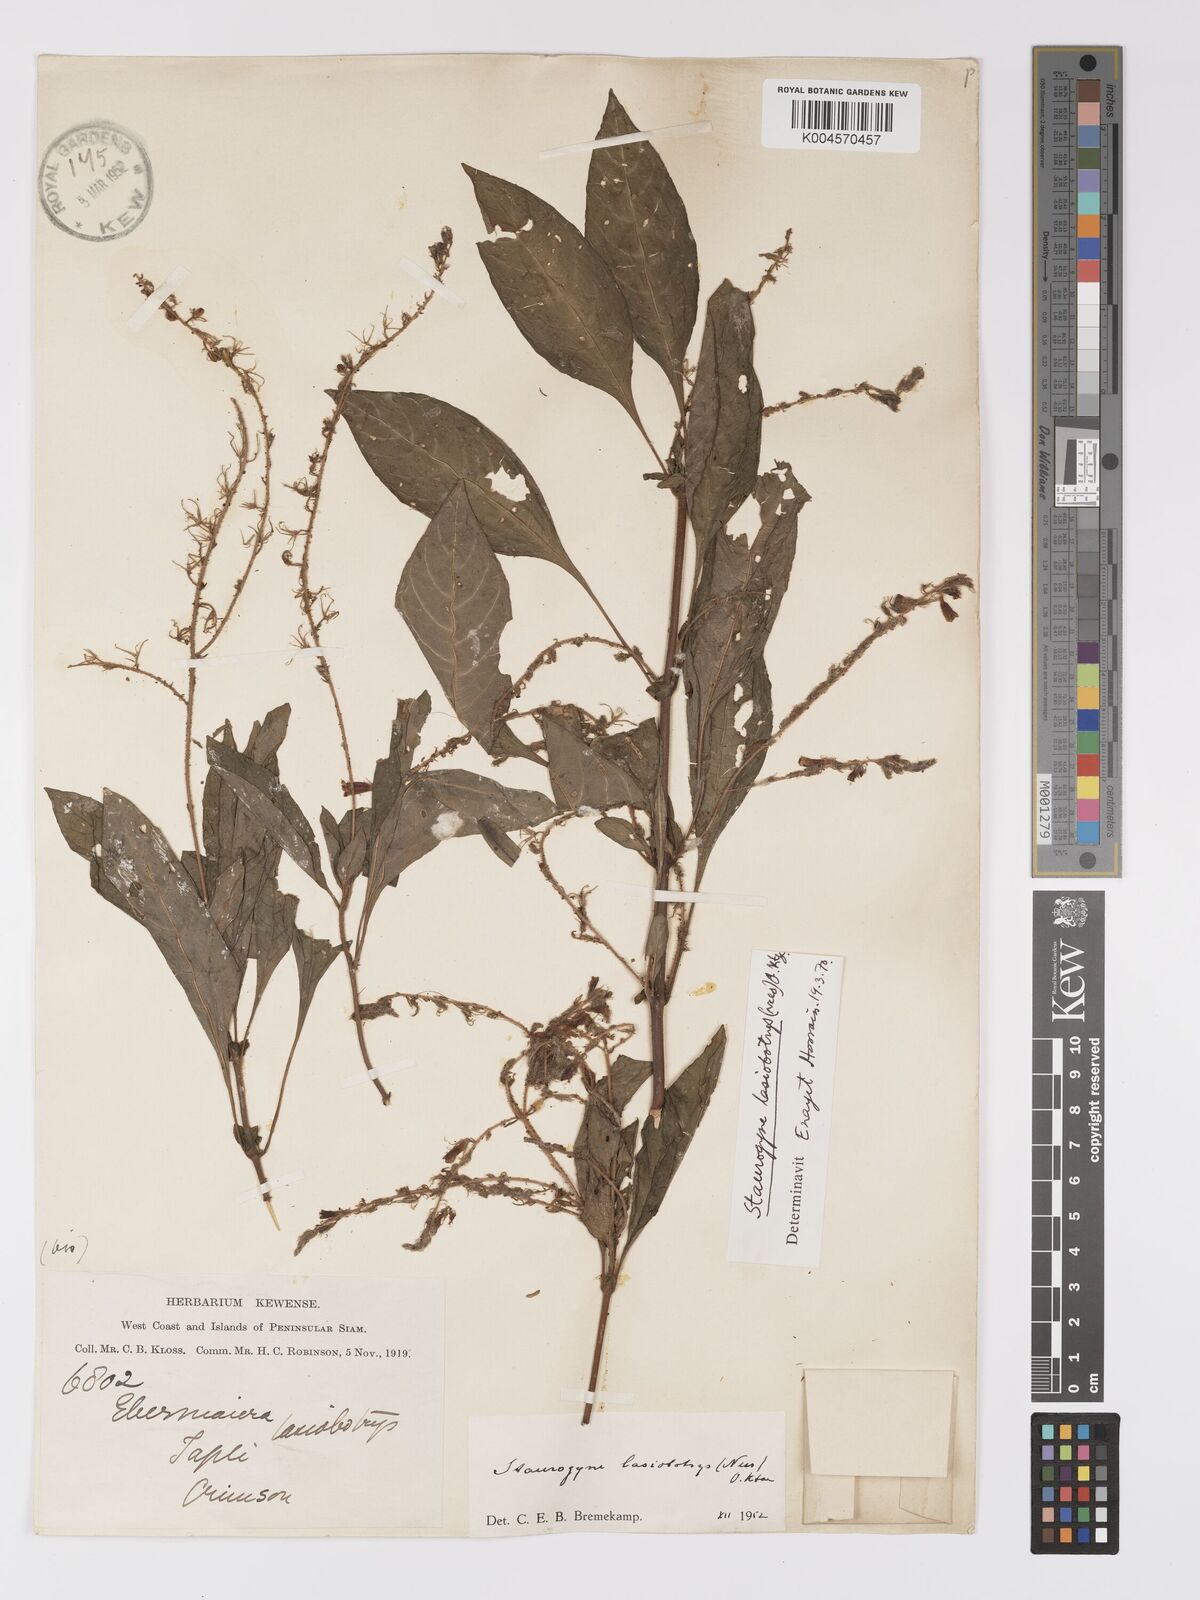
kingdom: Plantae
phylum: Tracheophyta
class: Magnoliopsida
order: Lamiales
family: Acanthaceae
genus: Staurogyne
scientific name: Staurogyne lasiobotrys
